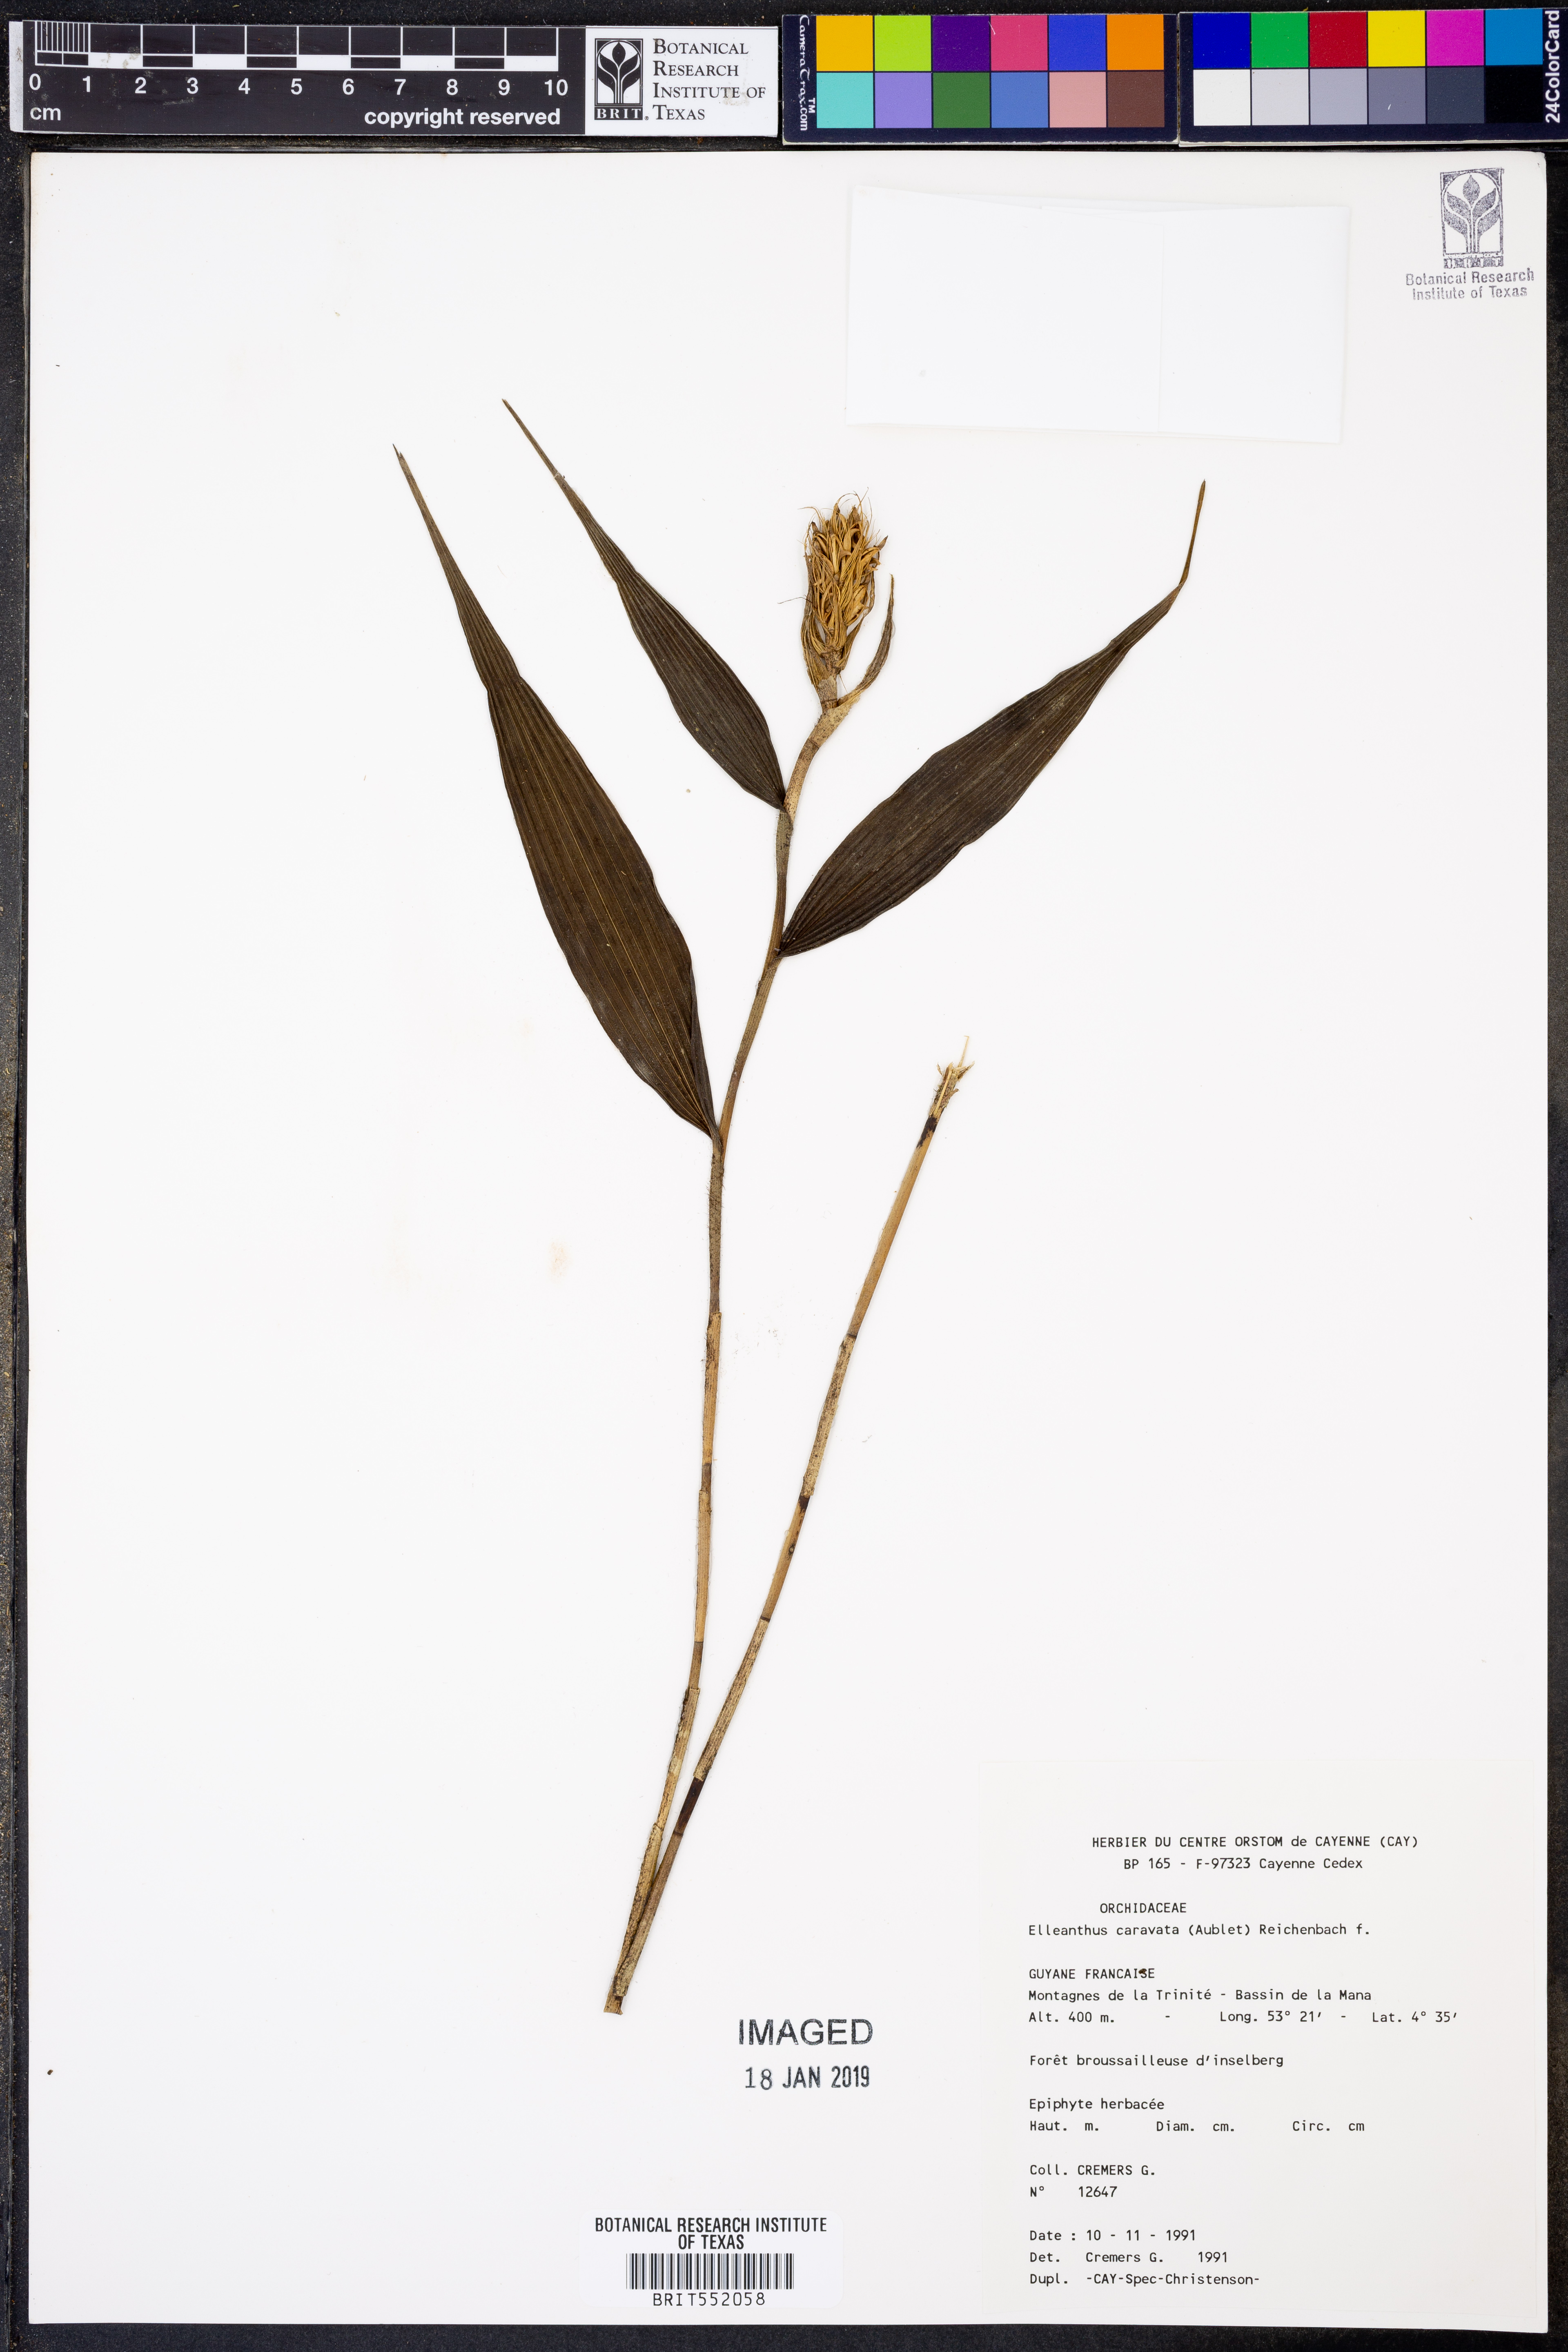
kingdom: Plantae
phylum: Tracheophyta
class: Liliopsida
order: Asparagales
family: Orchidaceae
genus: Elleanthus
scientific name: Elleanthus caravata
